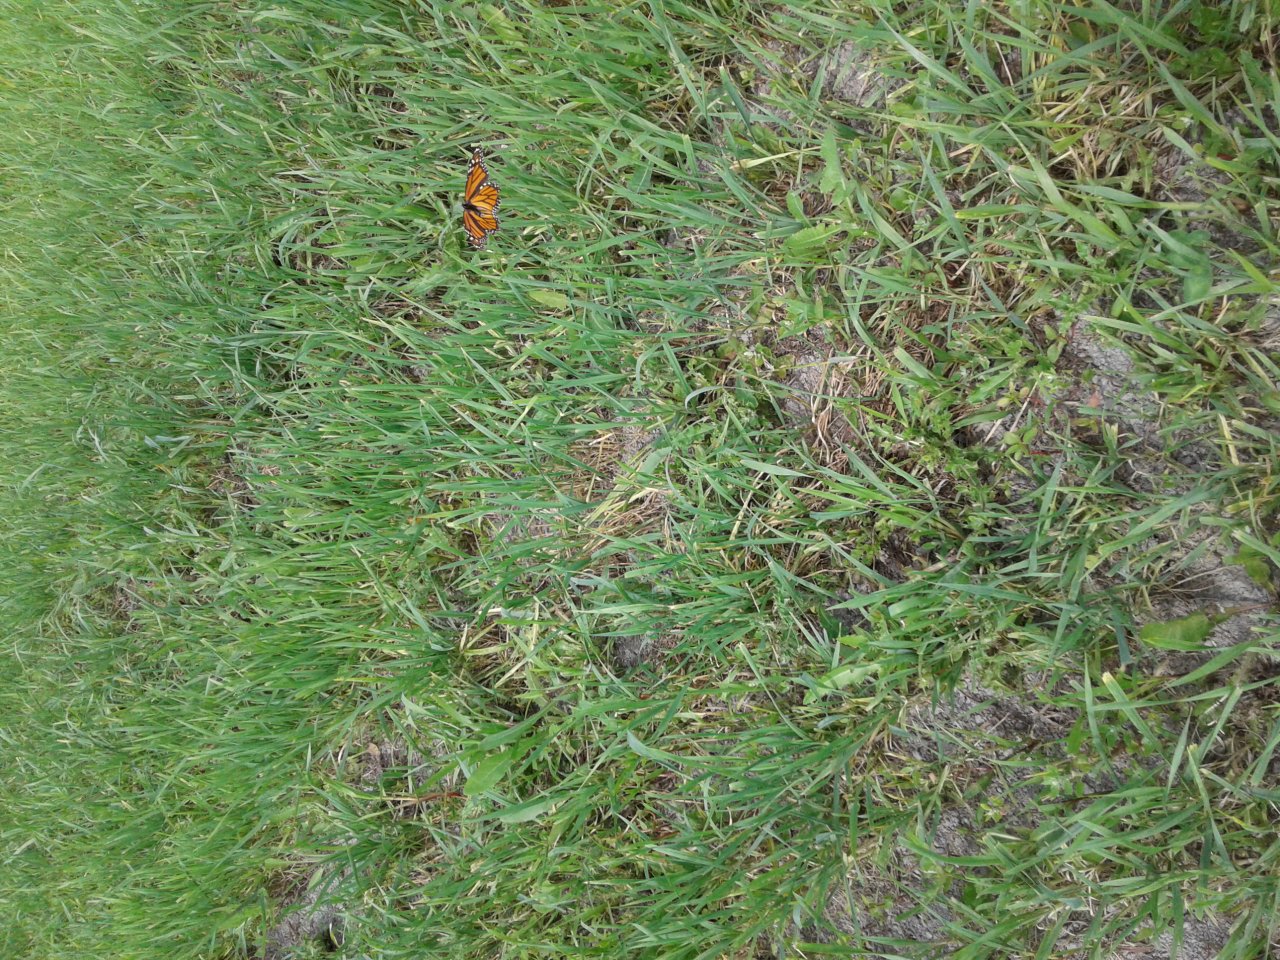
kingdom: Animalia
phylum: Arthropoda
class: Insecta
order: Lepidoptera
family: Nymphalidae
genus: Danaus
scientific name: Danaus plexippus
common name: Monarch
